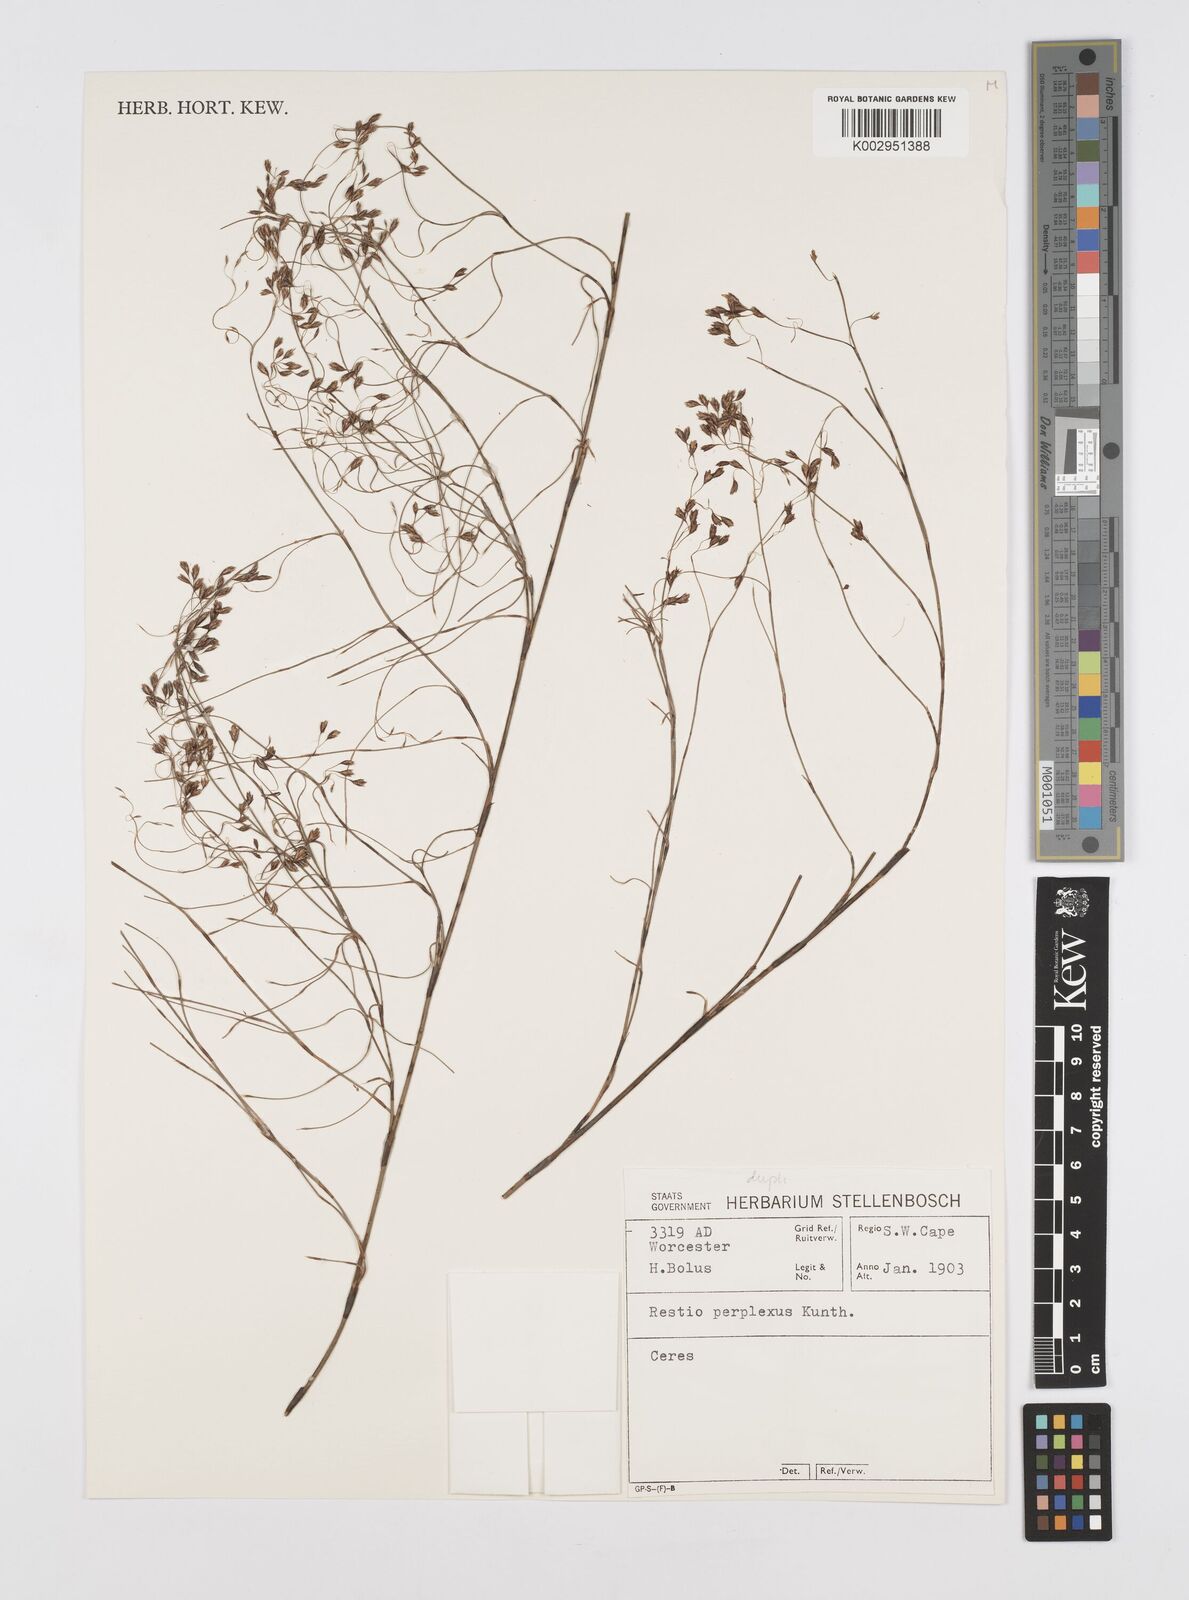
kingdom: Plantae
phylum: Tracheophyta
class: Liliopsida
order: Poales
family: Restionaceae
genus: Restio
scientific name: Restio perplexus
